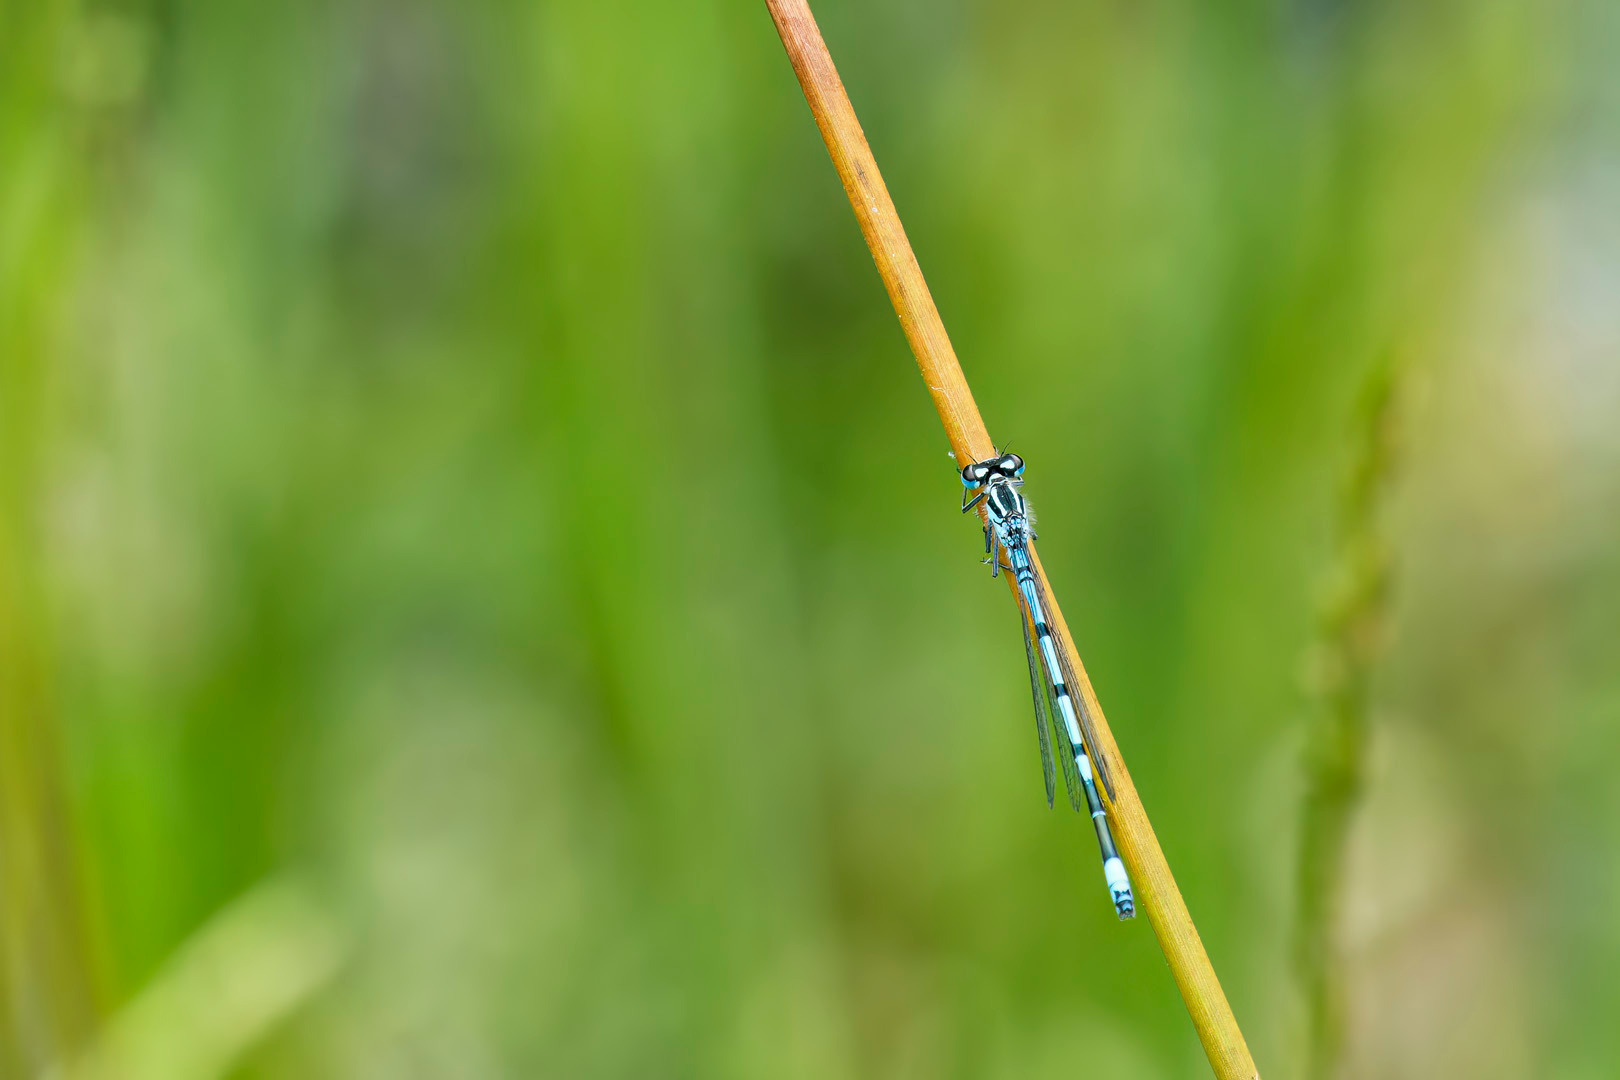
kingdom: Animalia
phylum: Arthropoda
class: Insecta
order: Odonata
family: Coenagrionidae
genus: Coenagrion
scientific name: Coenagrion puella
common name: Hestesko-vandnymfe
